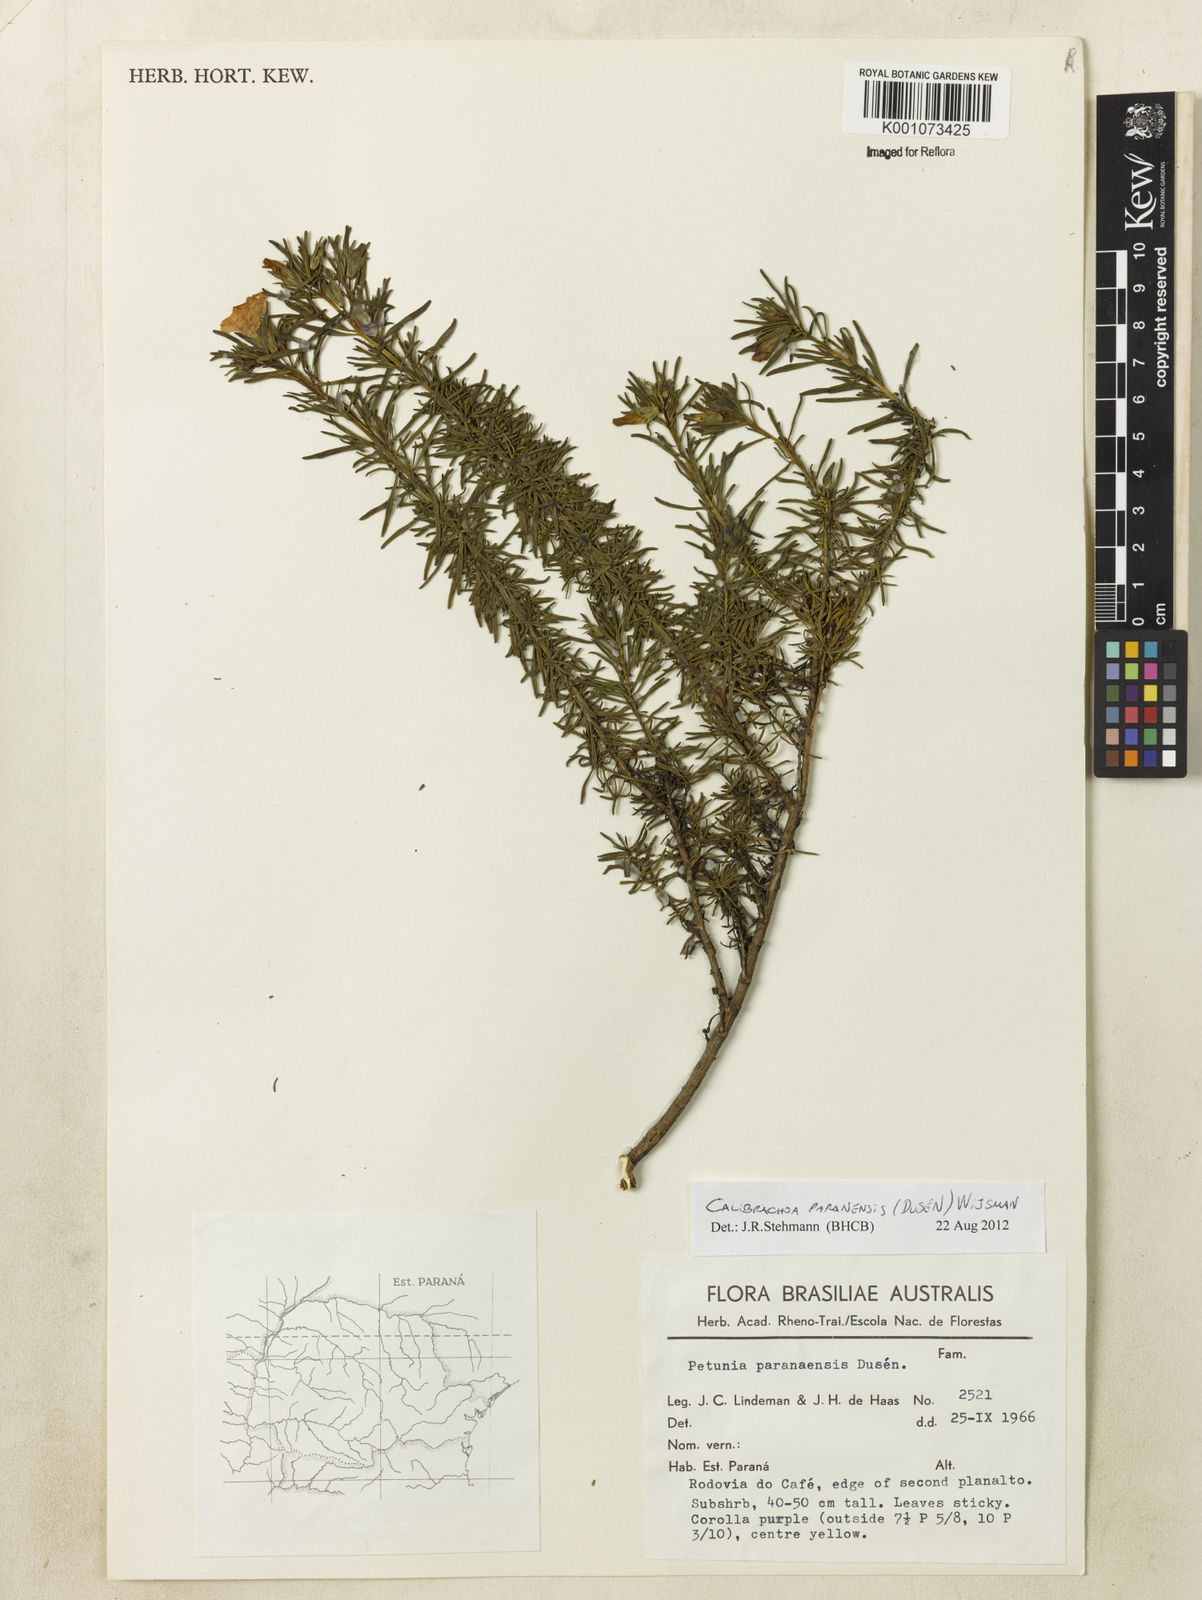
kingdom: Plantae
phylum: Tracheophyta
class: Magnoliopsida
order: Solanales
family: Solanaceae
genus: Calibrachoa
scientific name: Calibrachoa
